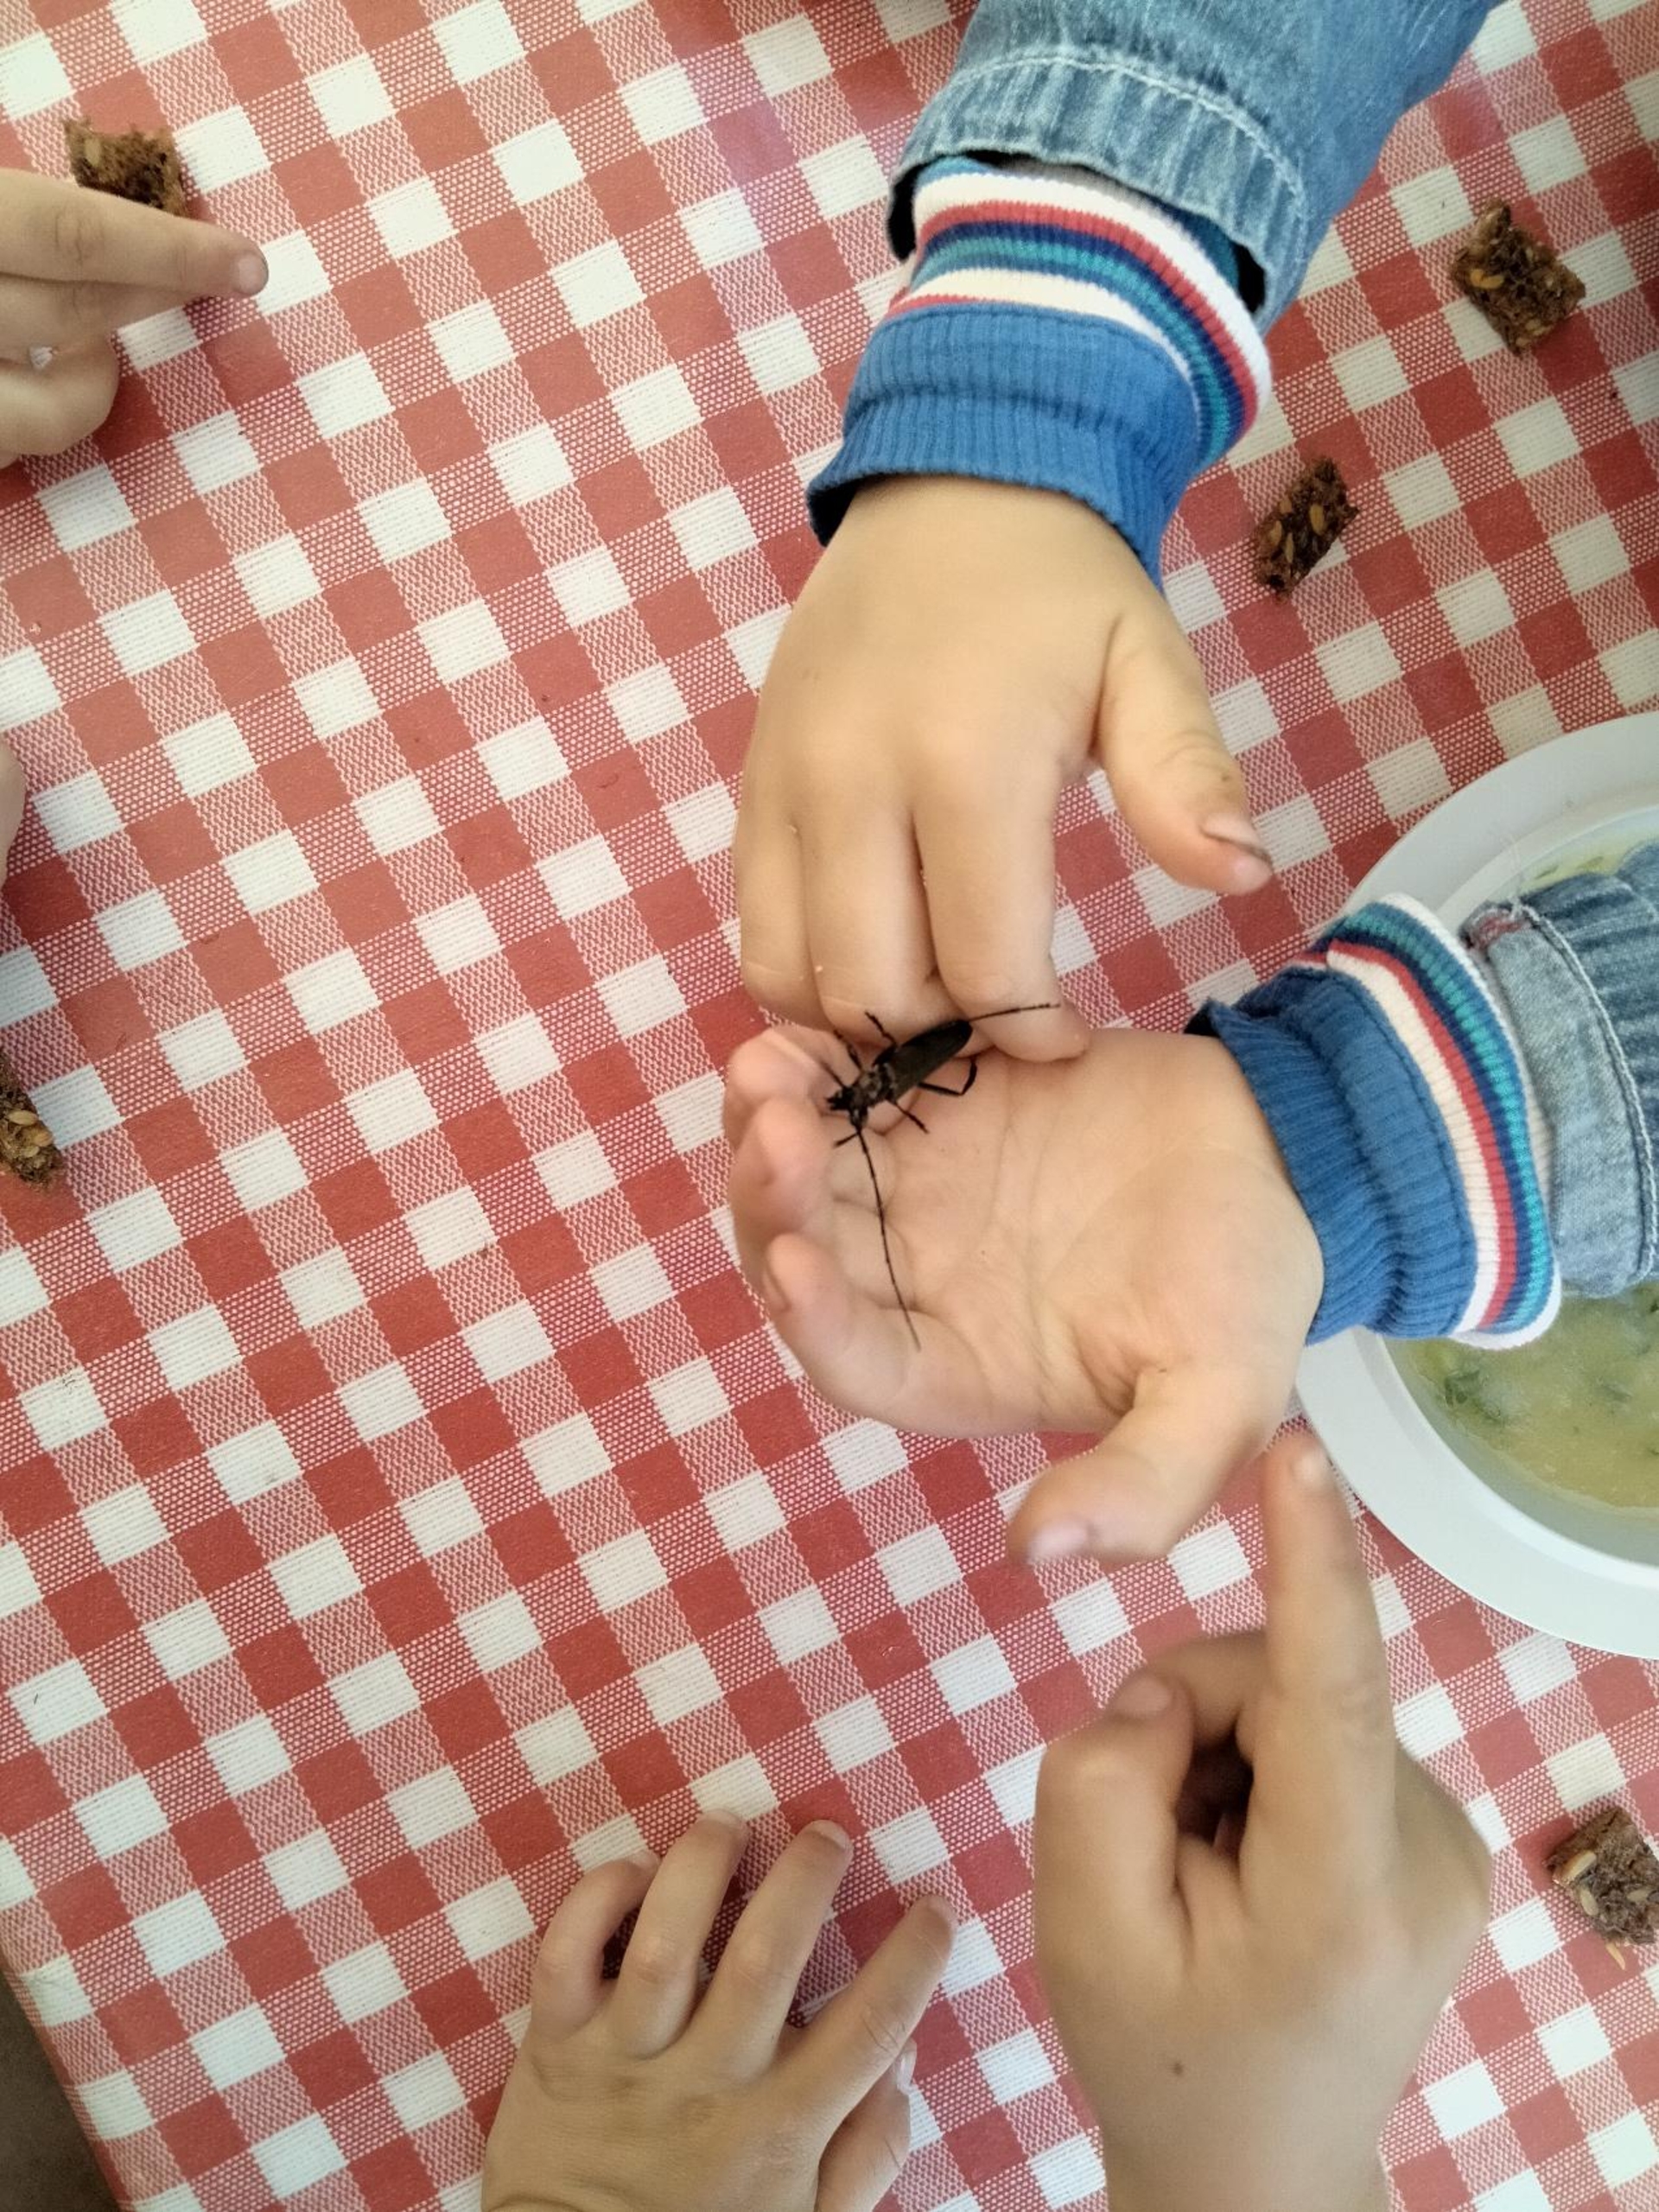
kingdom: Animalia
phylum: Arthropoda
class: Insecta
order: Coleoptera
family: Cerambycidae
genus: Aromia
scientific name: Aromia moschata
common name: Moskusbuk
